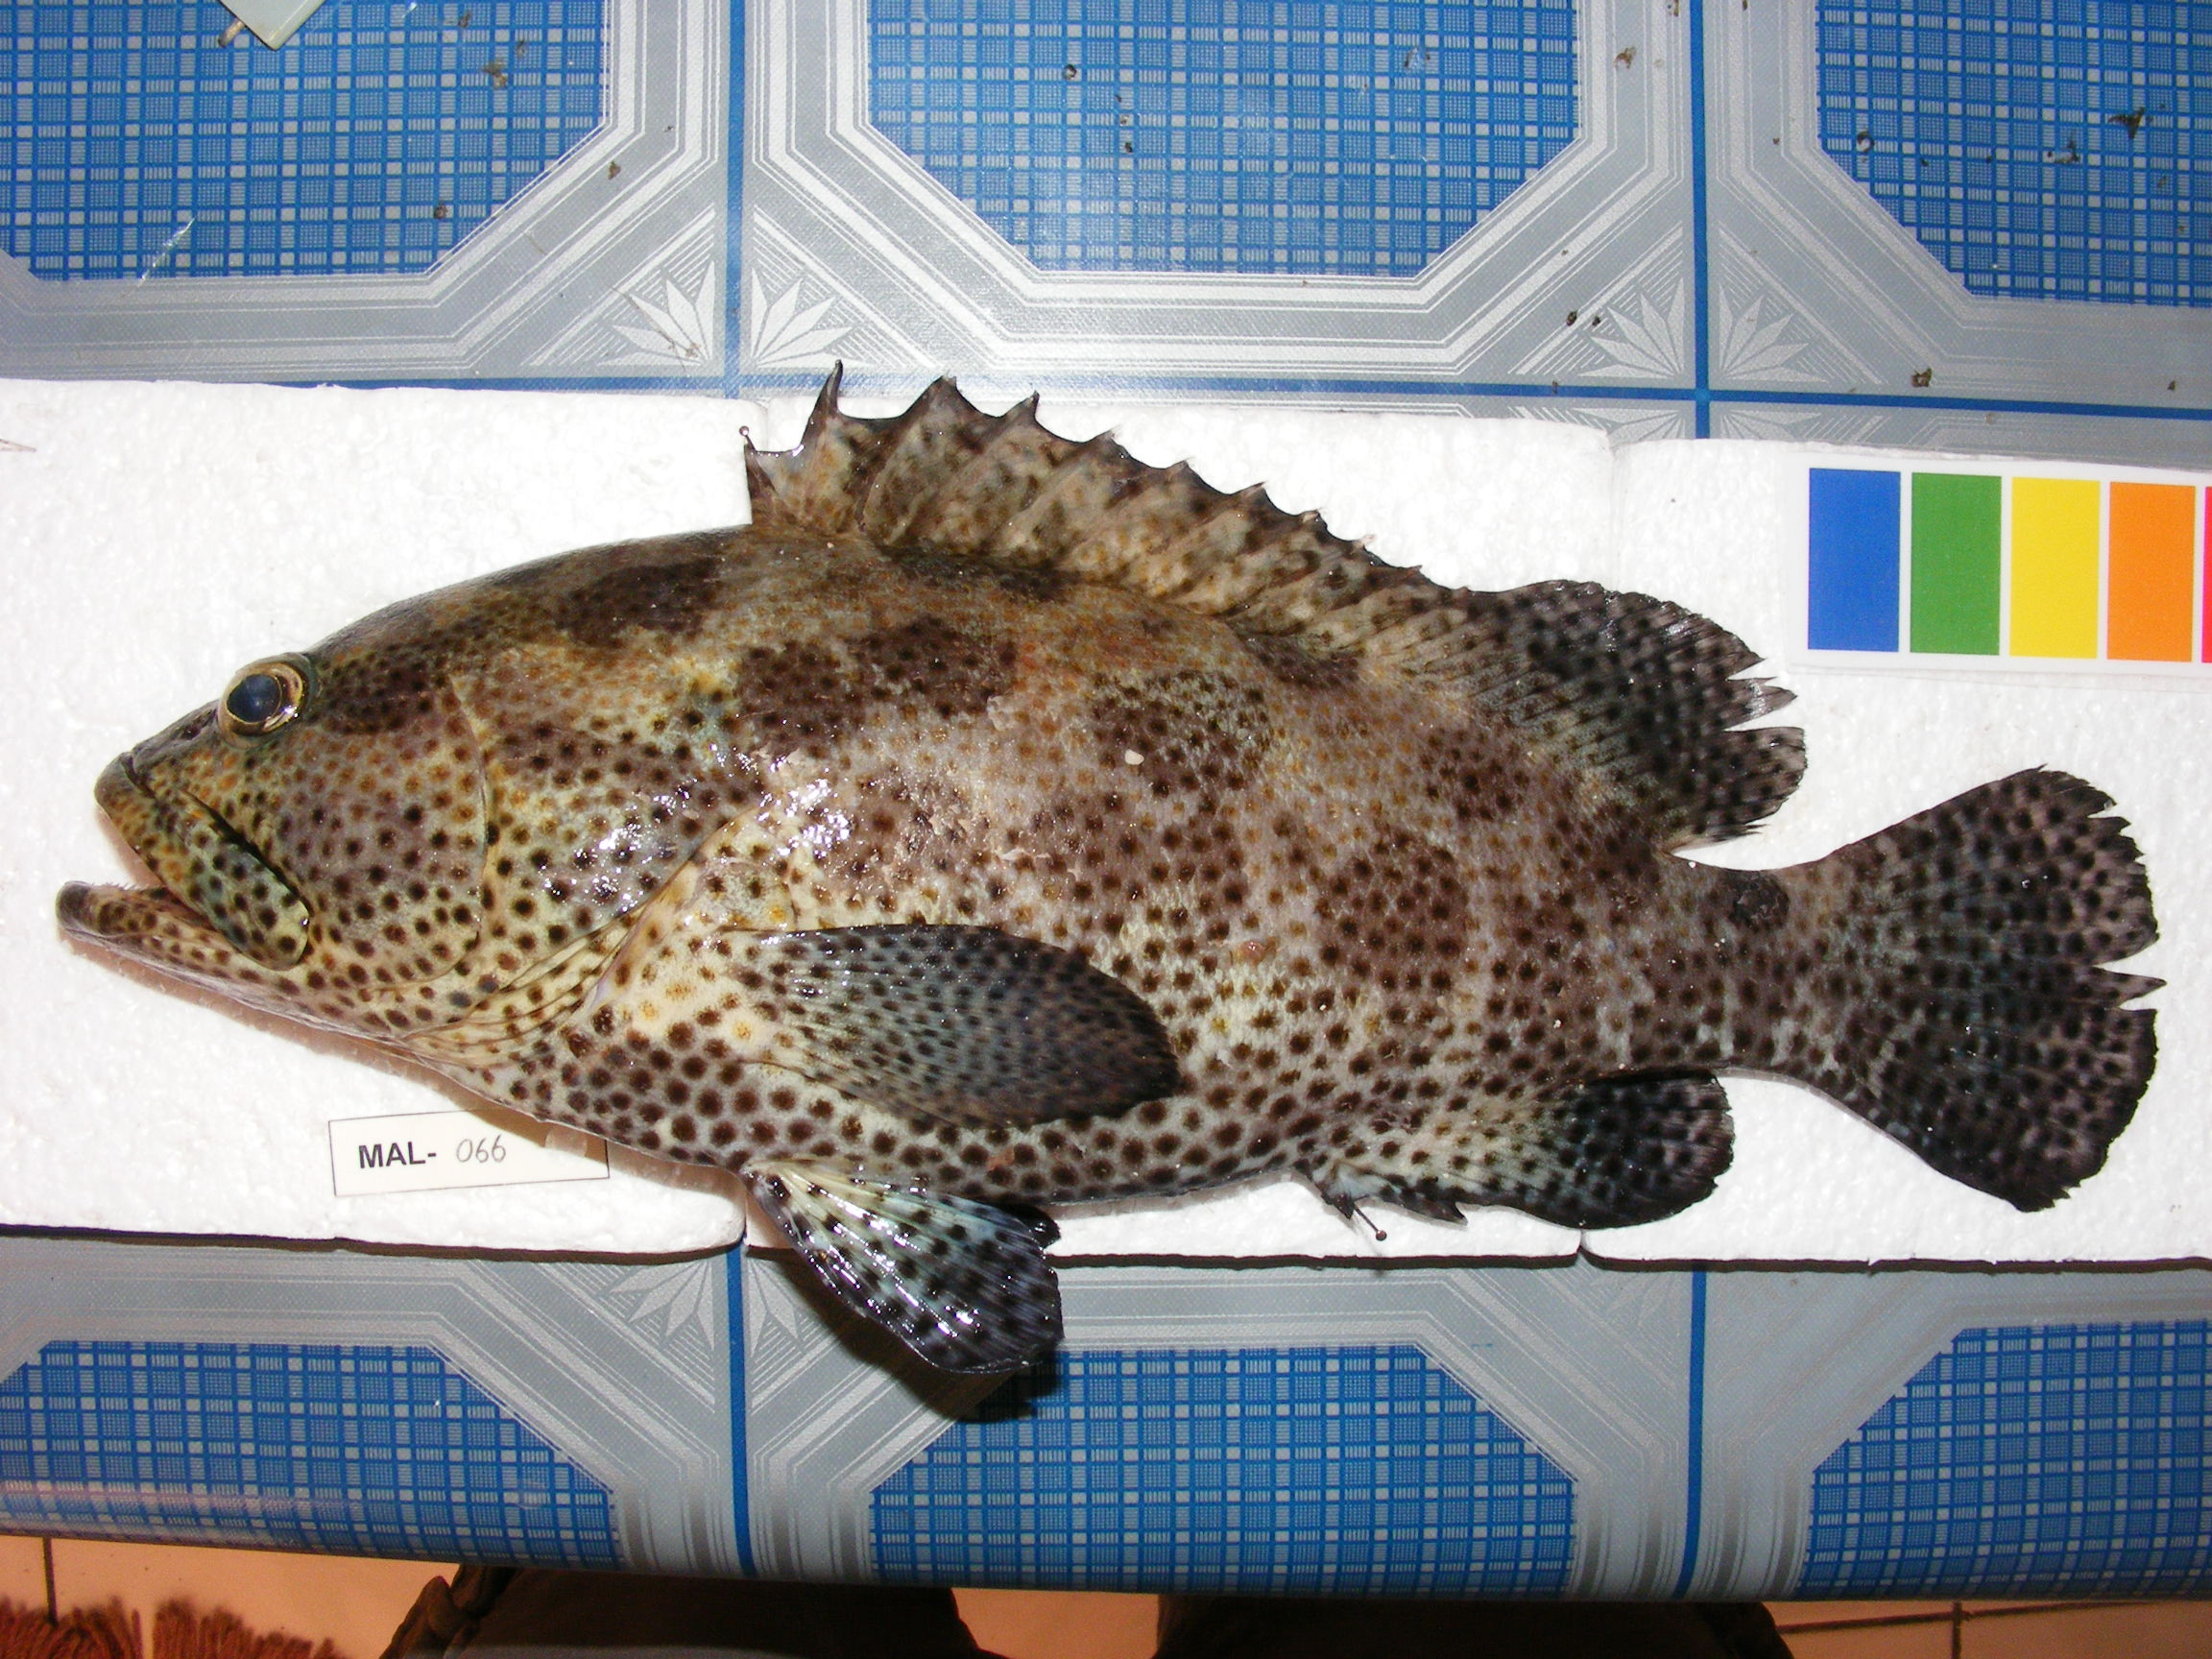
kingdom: Animalia
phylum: Chordata
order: Perciformes
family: Serranidae
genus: Epinephelus
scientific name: Epinephelus fuscoguttatus
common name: Brown-marbled grouper
